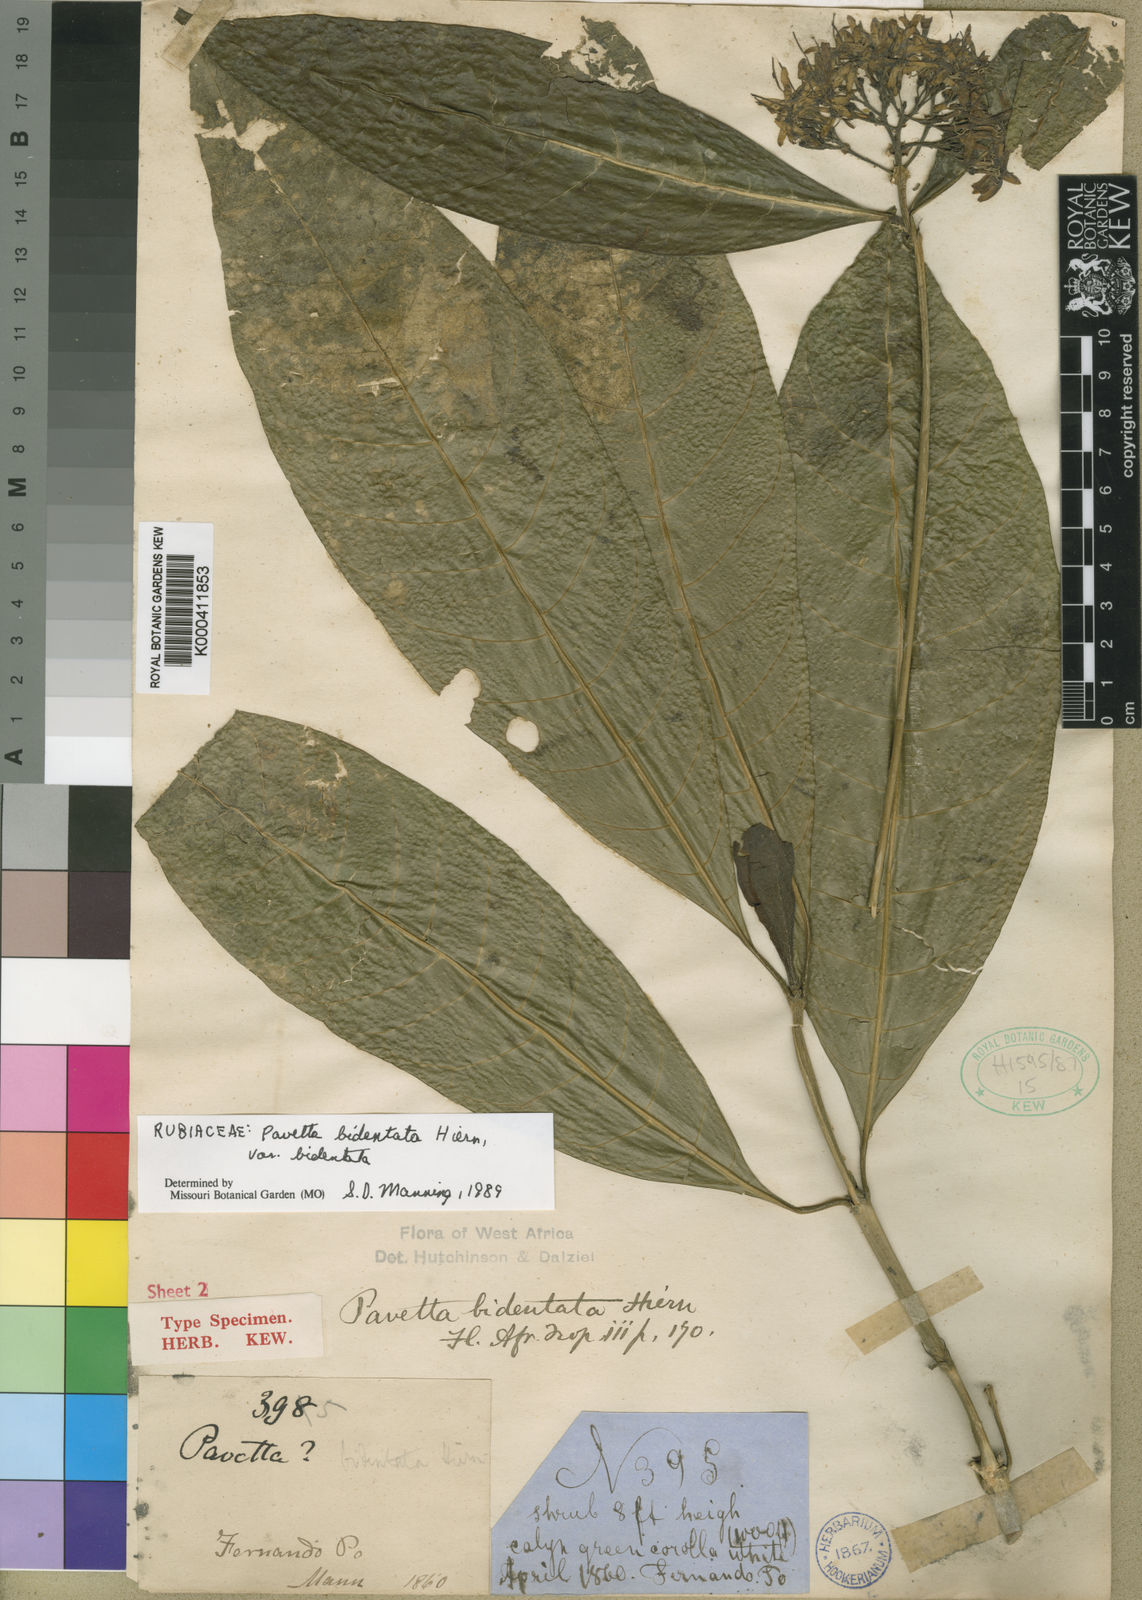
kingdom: Plantae
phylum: Tracheophyta
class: Magnoliopsida
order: Gentianales
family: Rubiaceae
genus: Pavetta
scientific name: Pavetta bidentata
